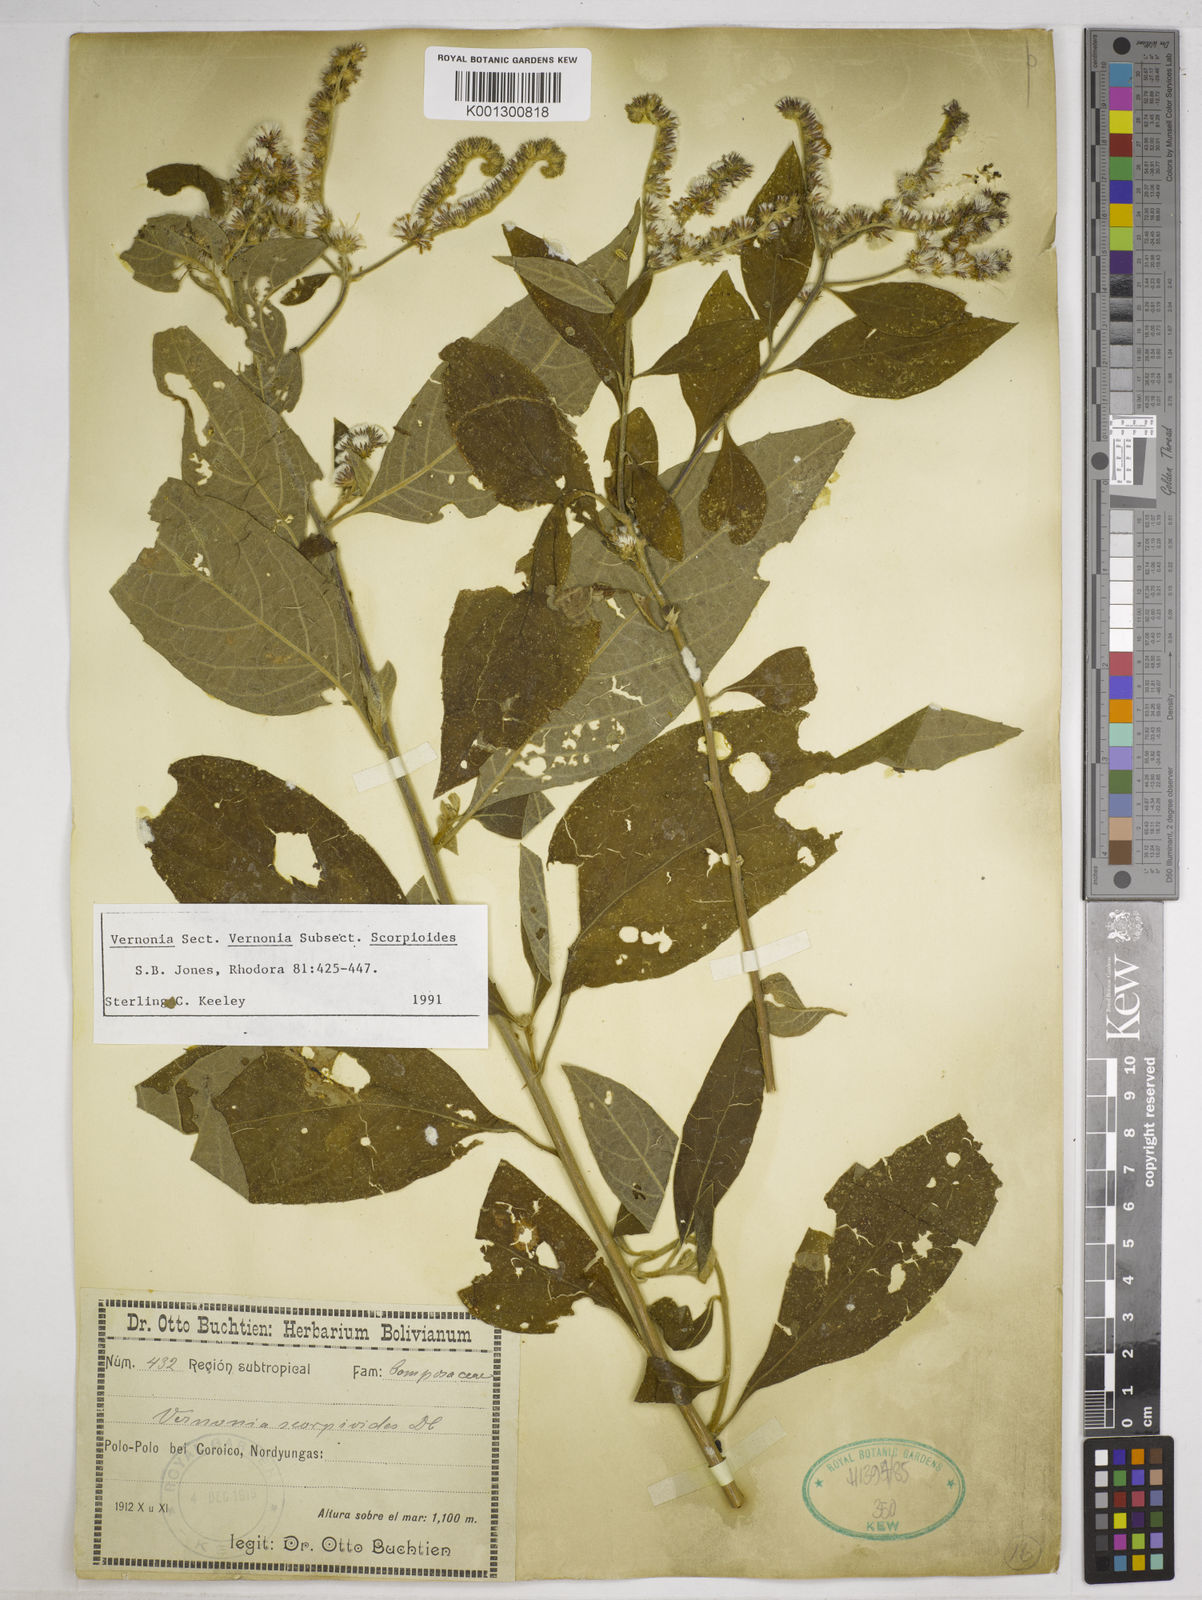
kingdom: Plantae
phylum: Tracheophyta
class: Magnoliopsida
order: Asterales
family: Asteraceae
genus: Cyrtocymura
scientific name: Cyrtocymura scorpioides
